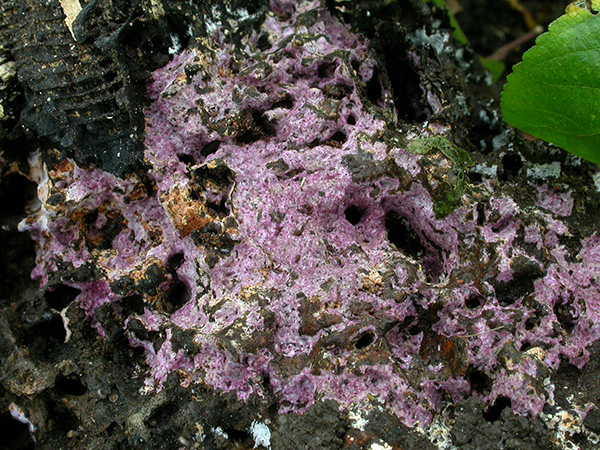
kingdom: Fungi
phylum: Basidiomycota
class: Pucciniomycetes
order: Helicobasidiales
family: Helicobasidiaceae
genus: Helicobasidium
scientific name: Helicobasidium purpureum
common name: purpur-bispebævrehinde
